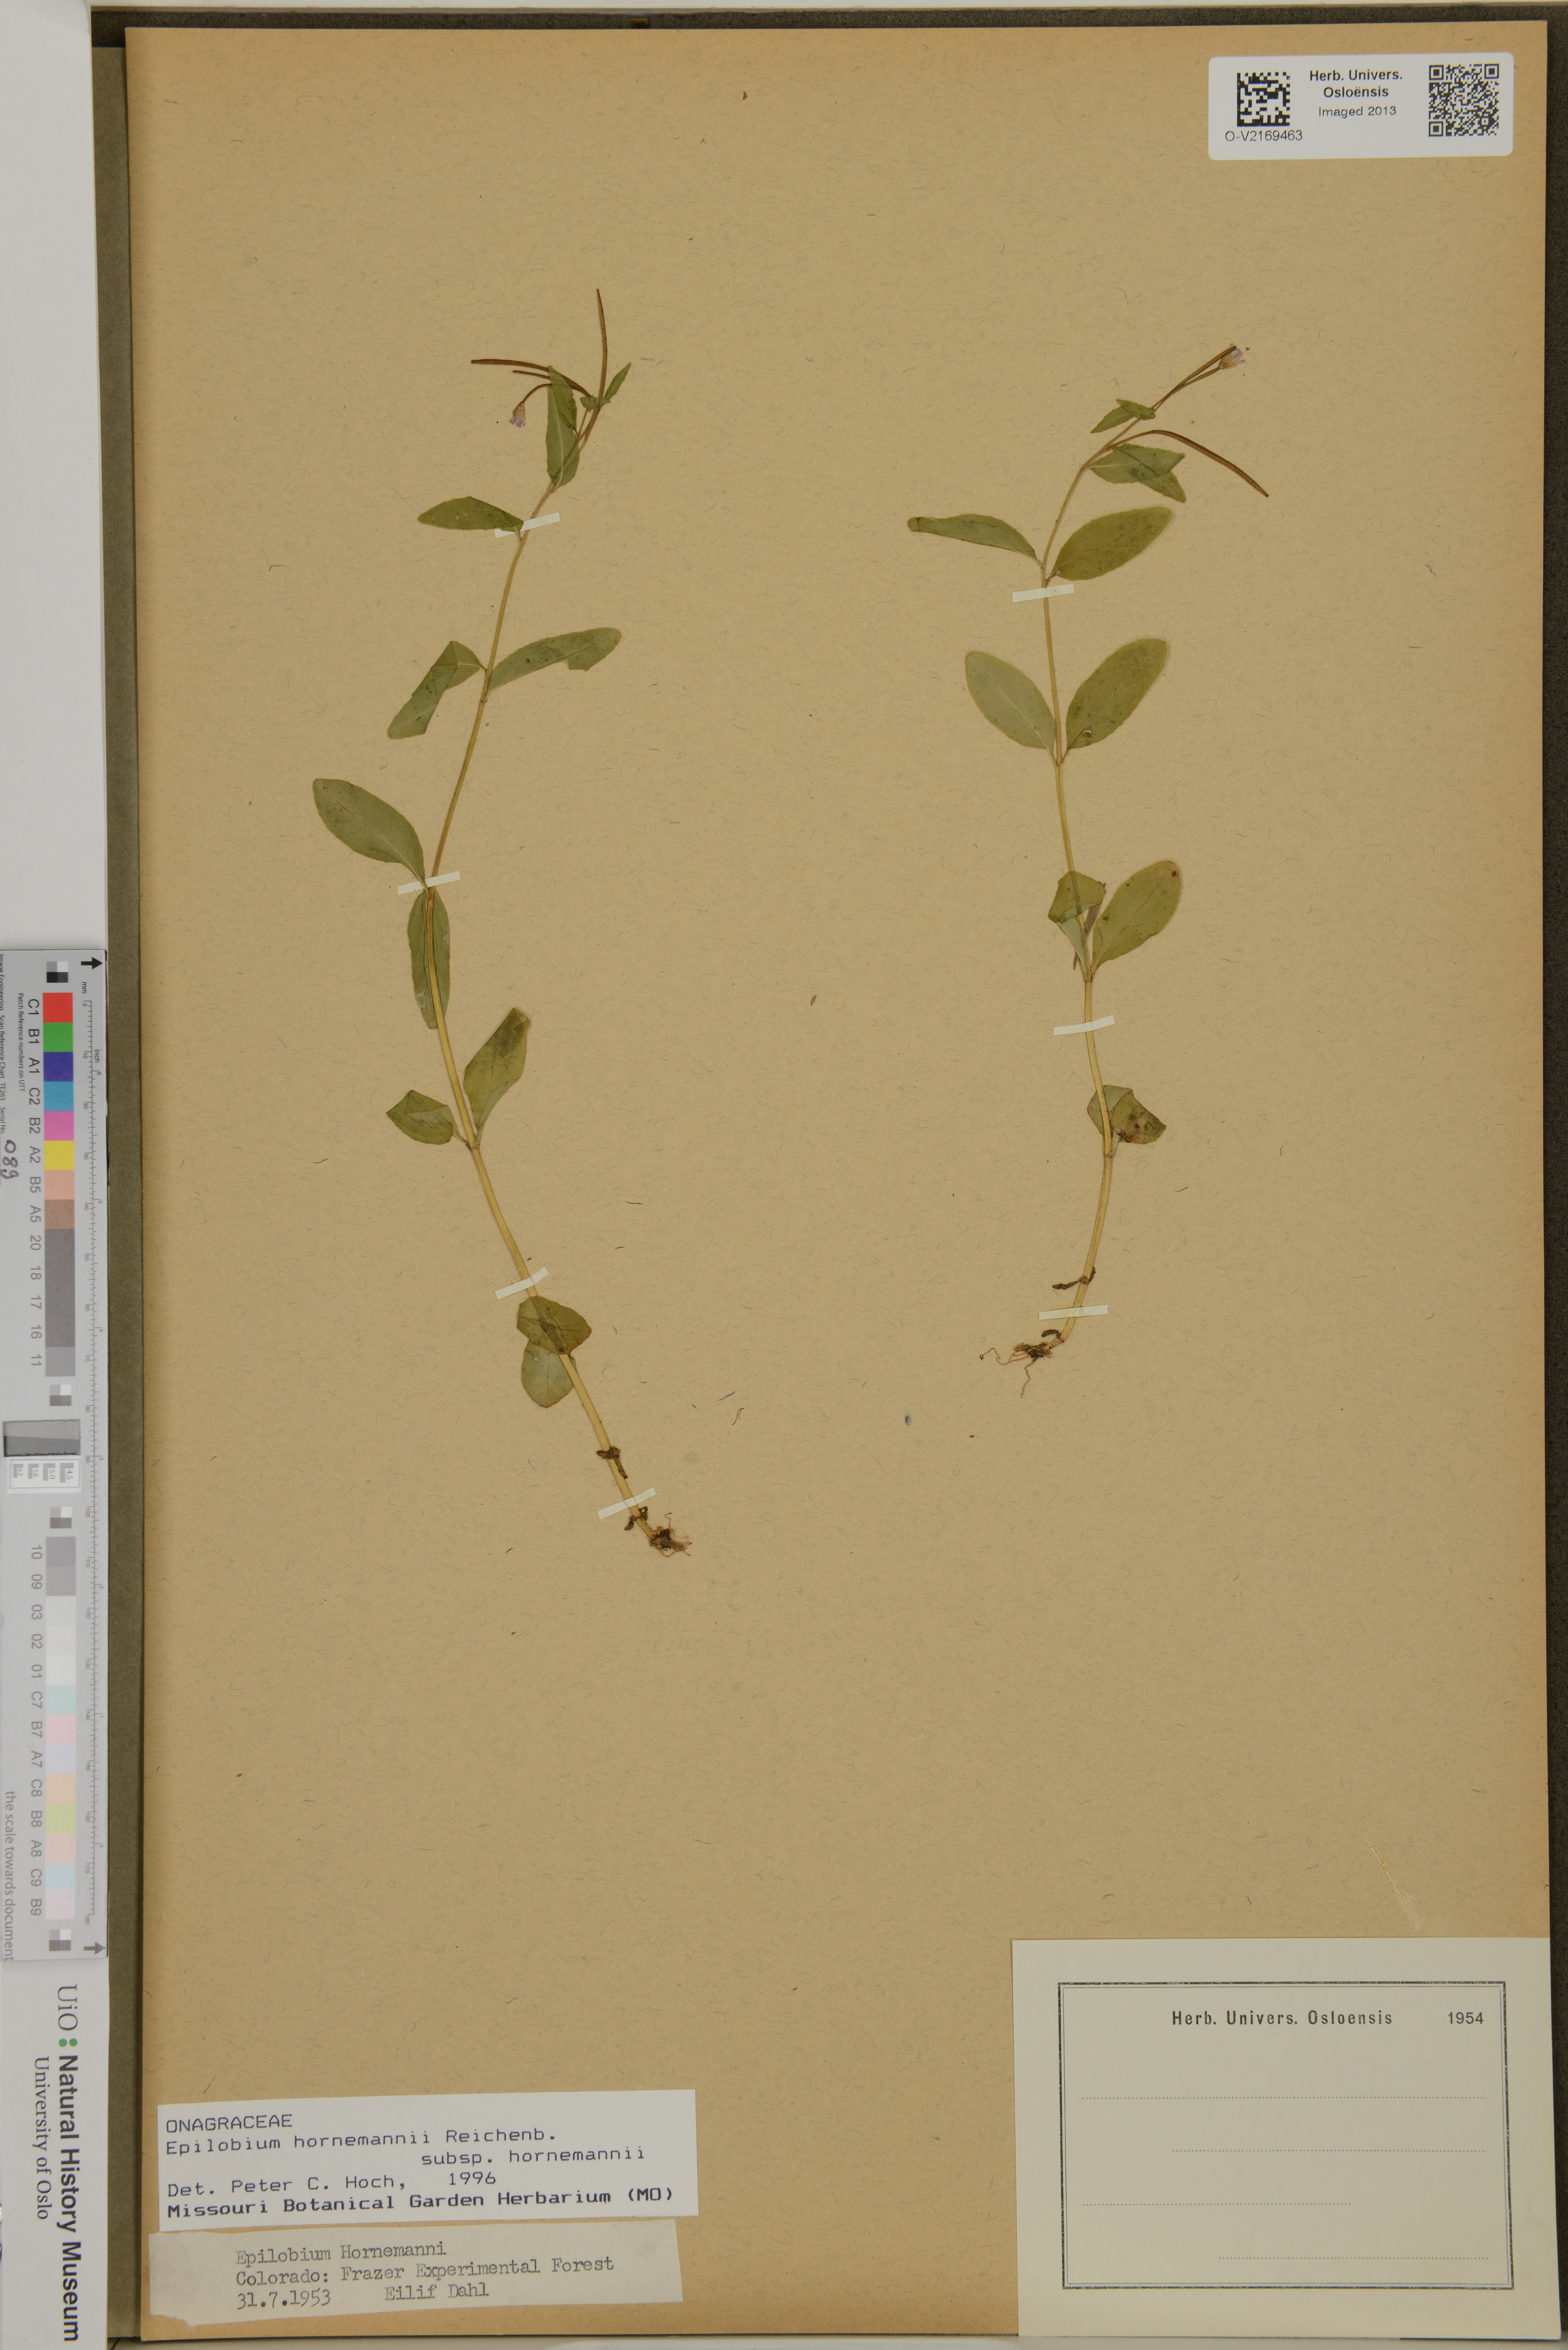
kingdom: Plantae
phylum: Tracheophyta
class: Magnoliopsida
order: Myrtales
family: Onagraceae
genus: Epilobium
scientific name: Epilobium hornemannii
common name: Hornemann's willowherb
